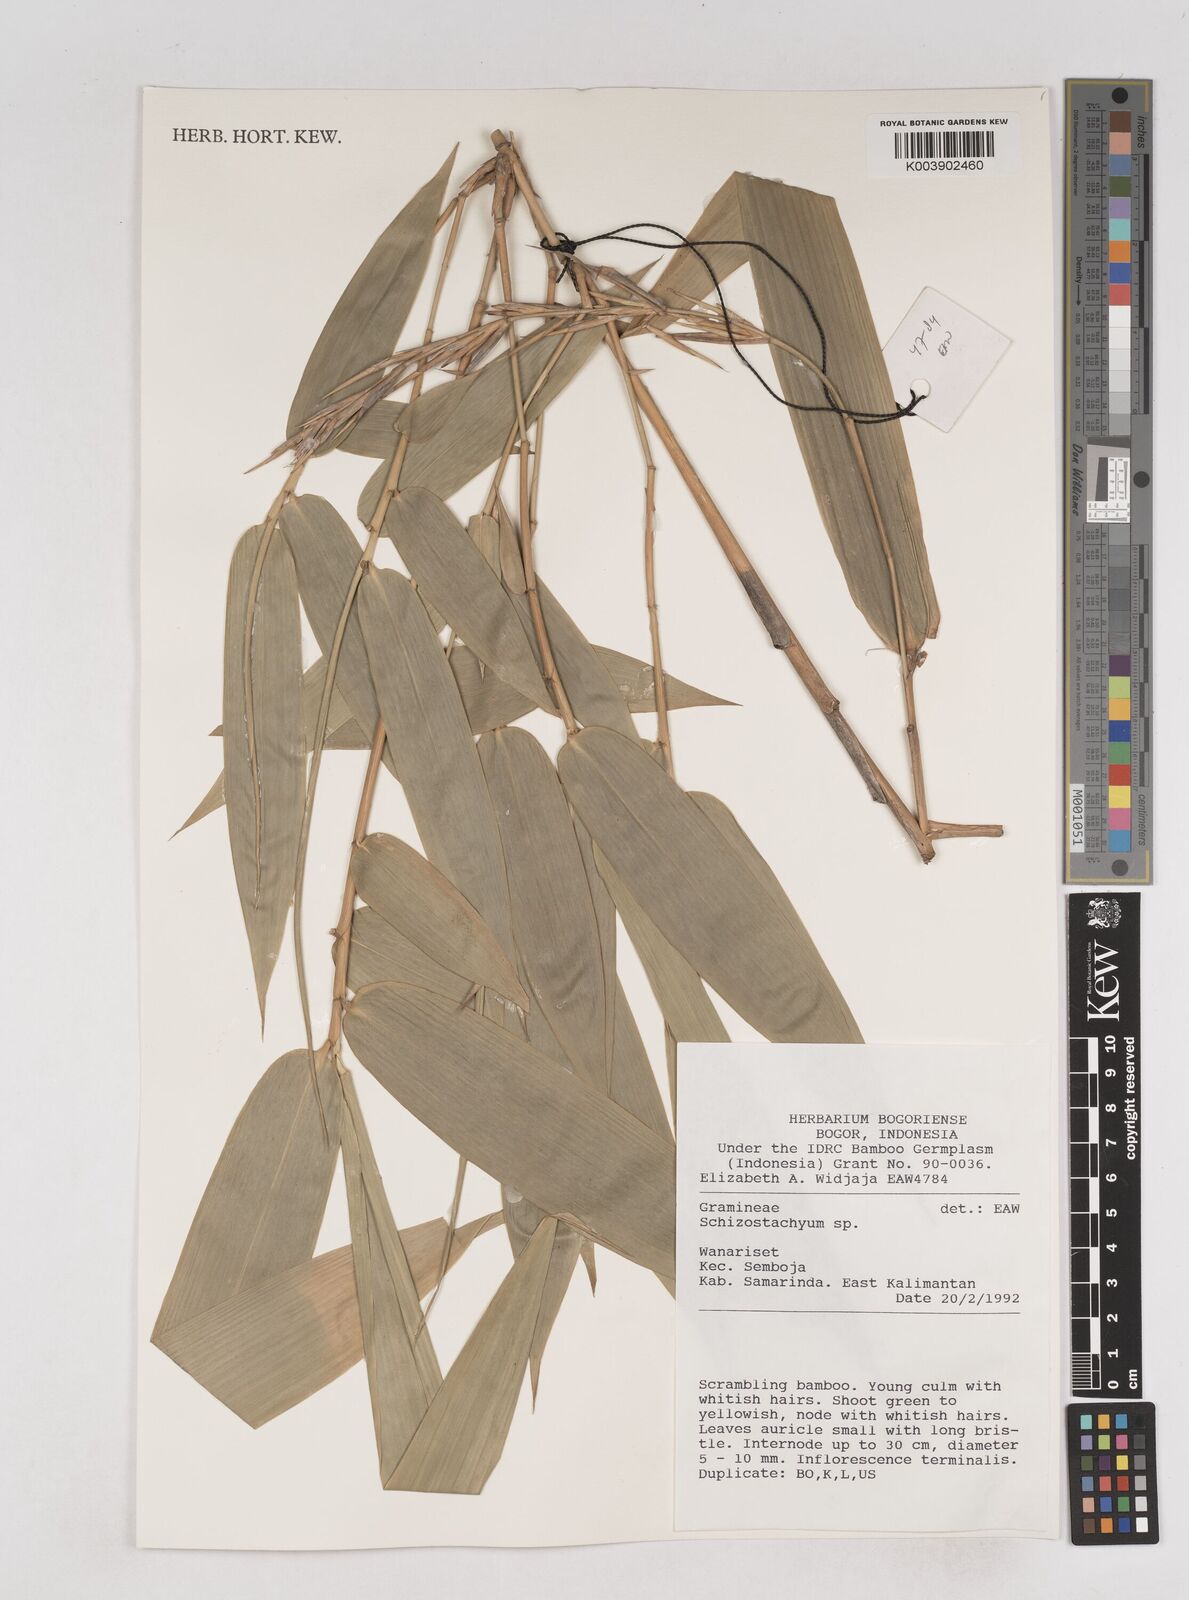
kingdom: Plantae
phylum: Tracheophyta
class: Liliopsida
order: Poales
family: Poaceae
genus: Schizostachyum
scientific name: Schizostachyum
